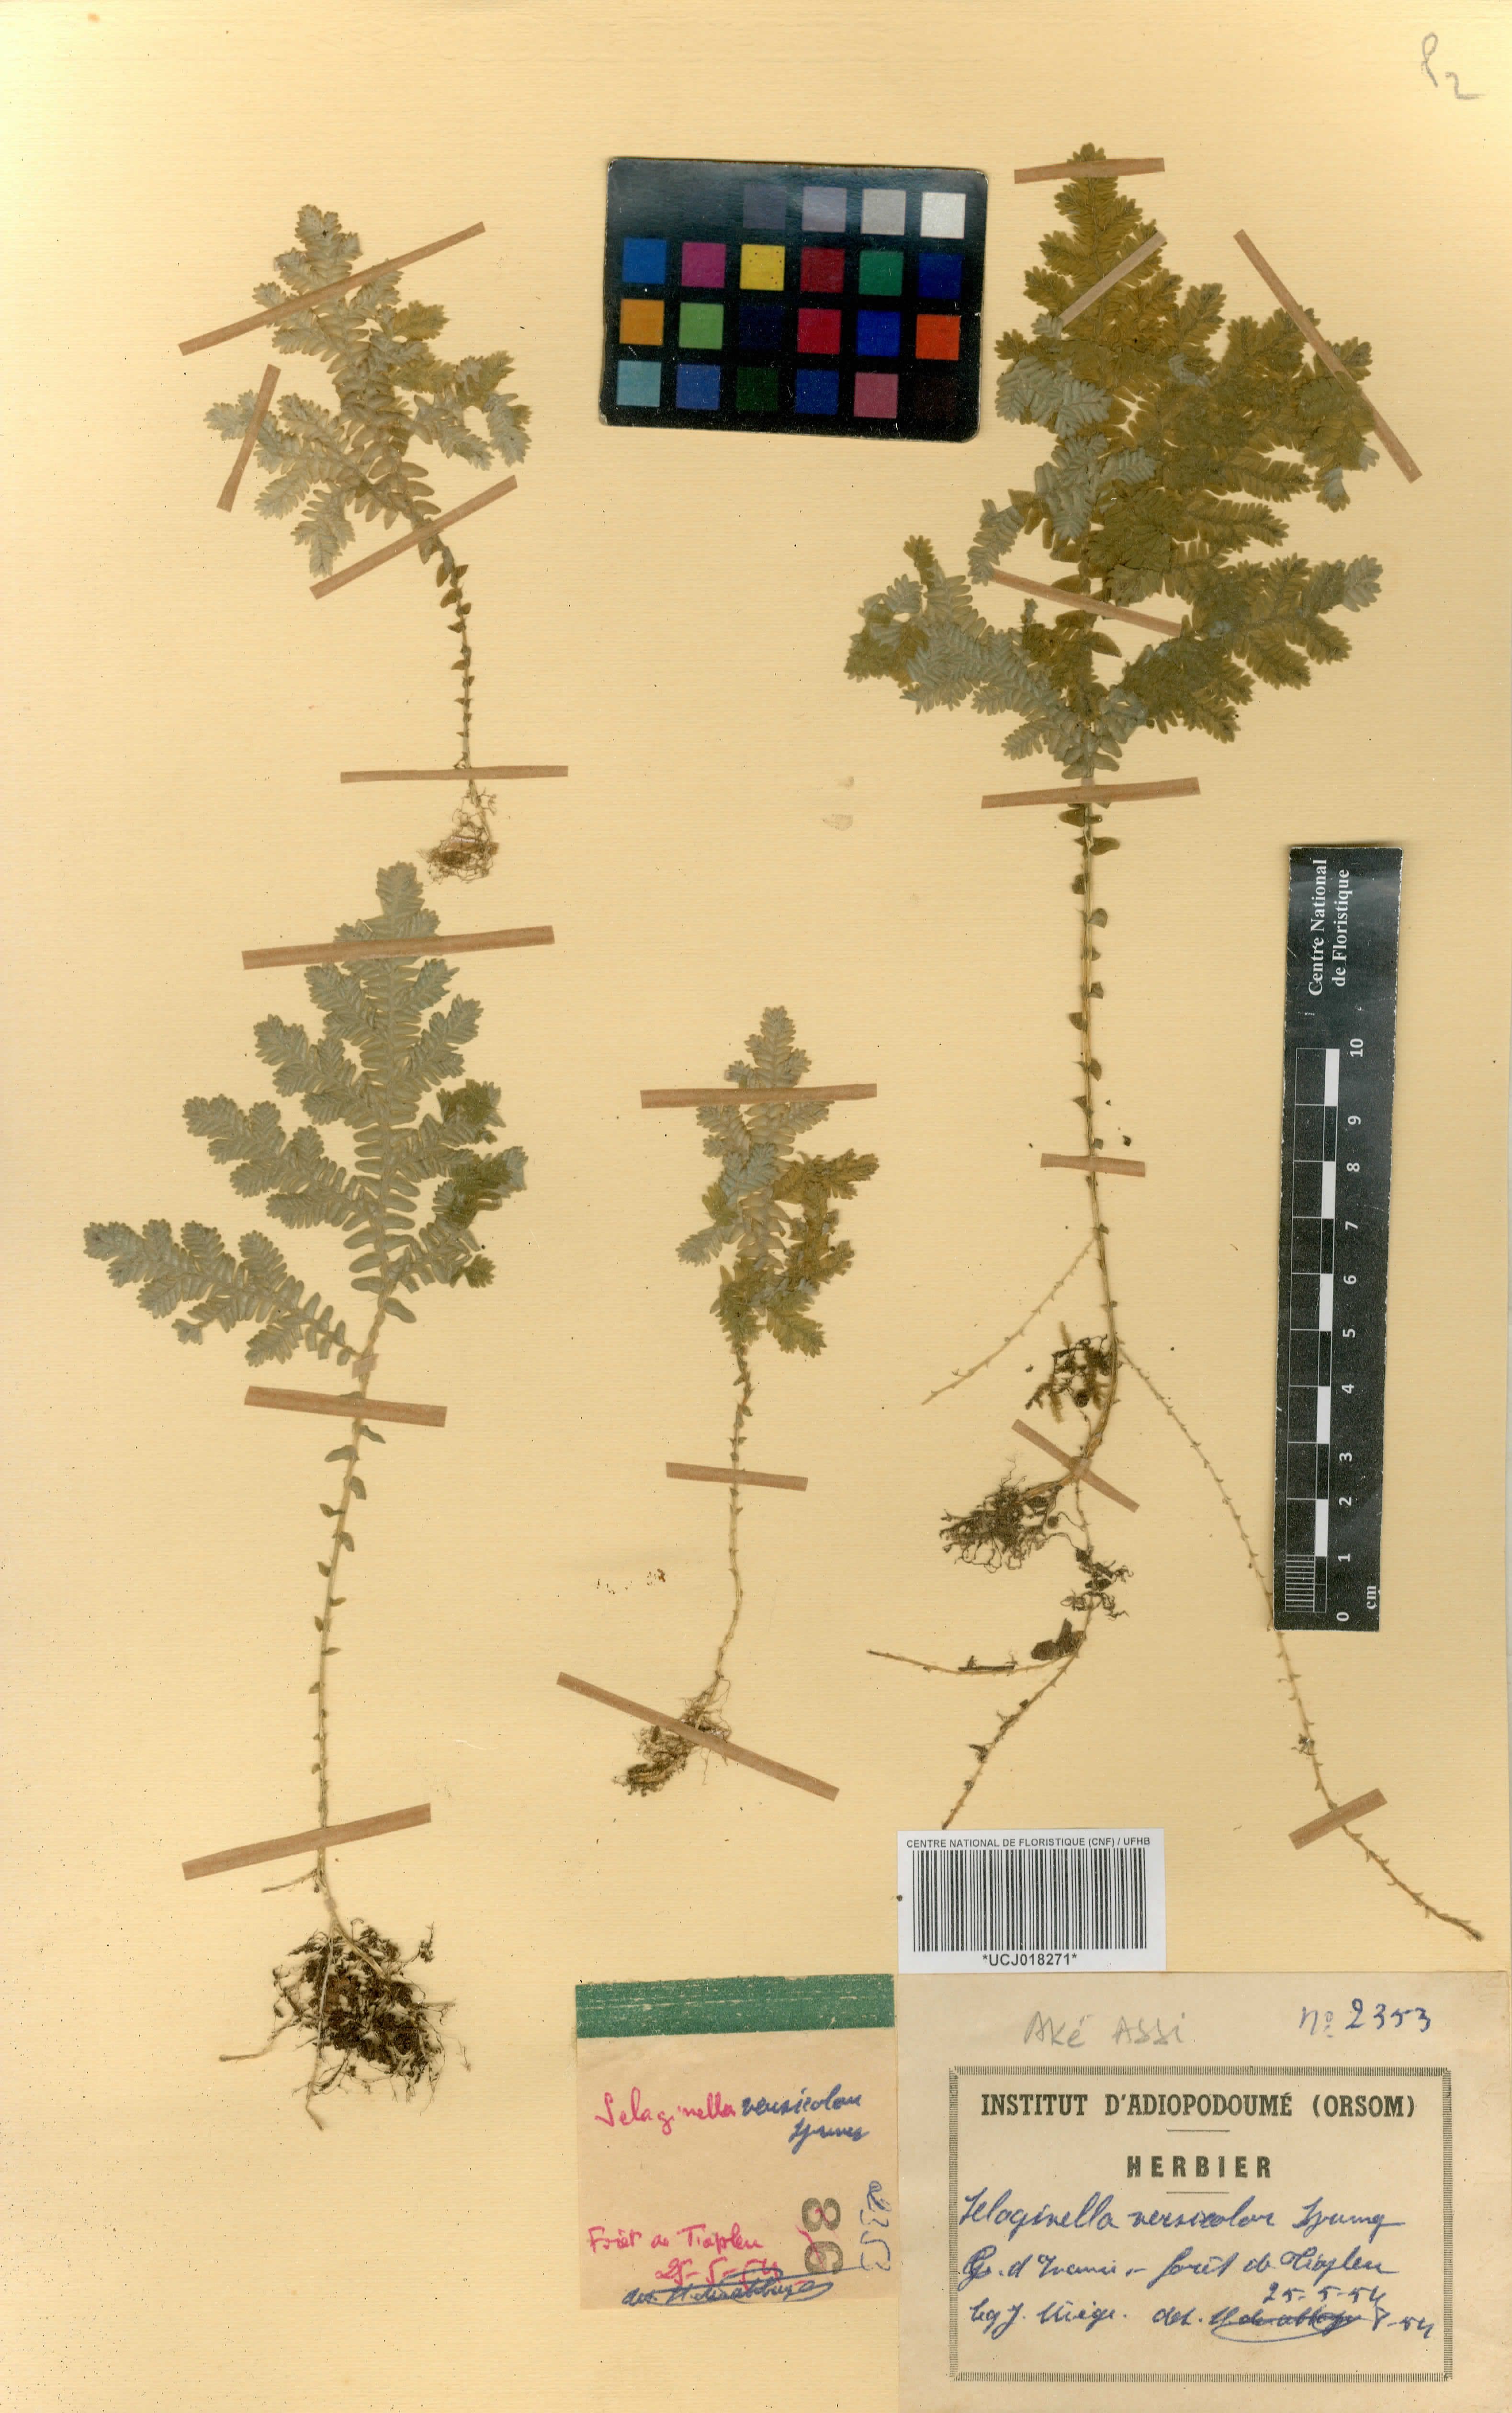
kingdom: Plantae
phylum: Tracheophyta
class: Lycopodiopsida
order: Selaginellales
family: Selaginellaceae
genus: Selaginella
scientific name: Selaginella versicolor
